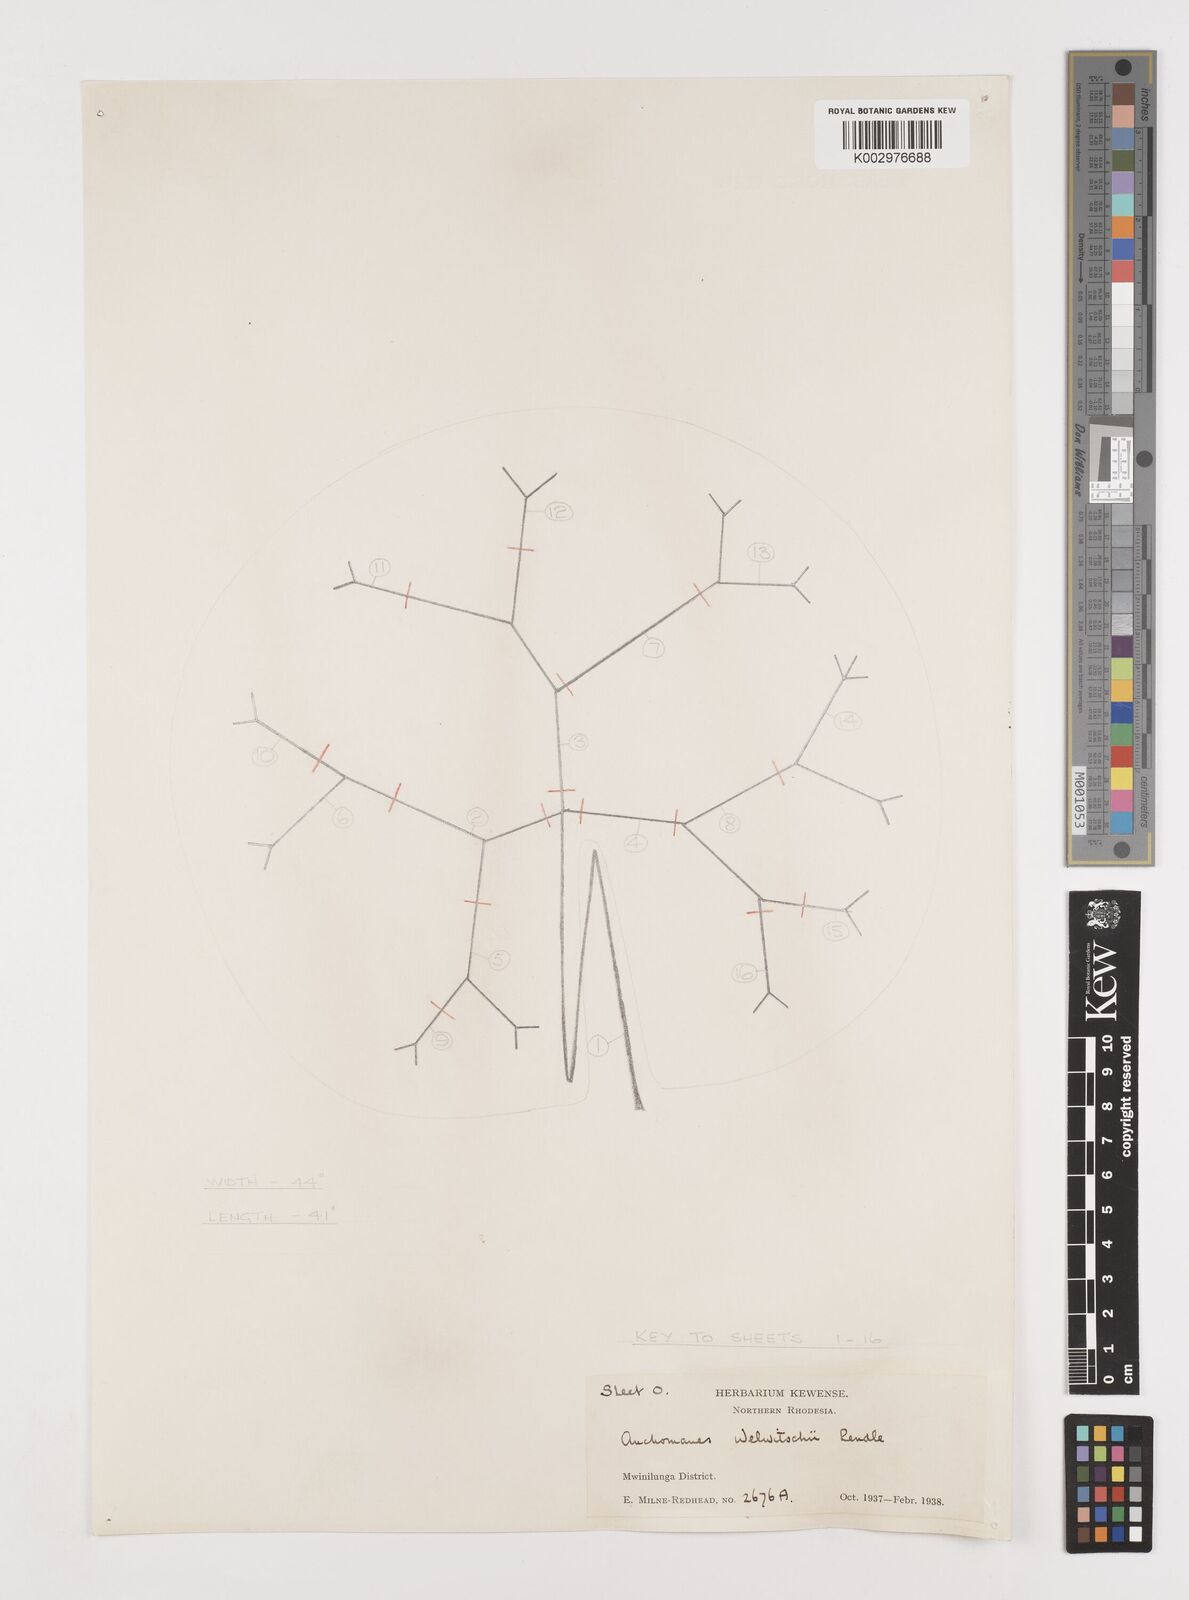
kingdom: Plantae
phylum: Tracheophyta
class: Liliopsida
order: Alismatales
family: Araceae
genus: Anchomanes
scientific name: Anchomanes difformis
